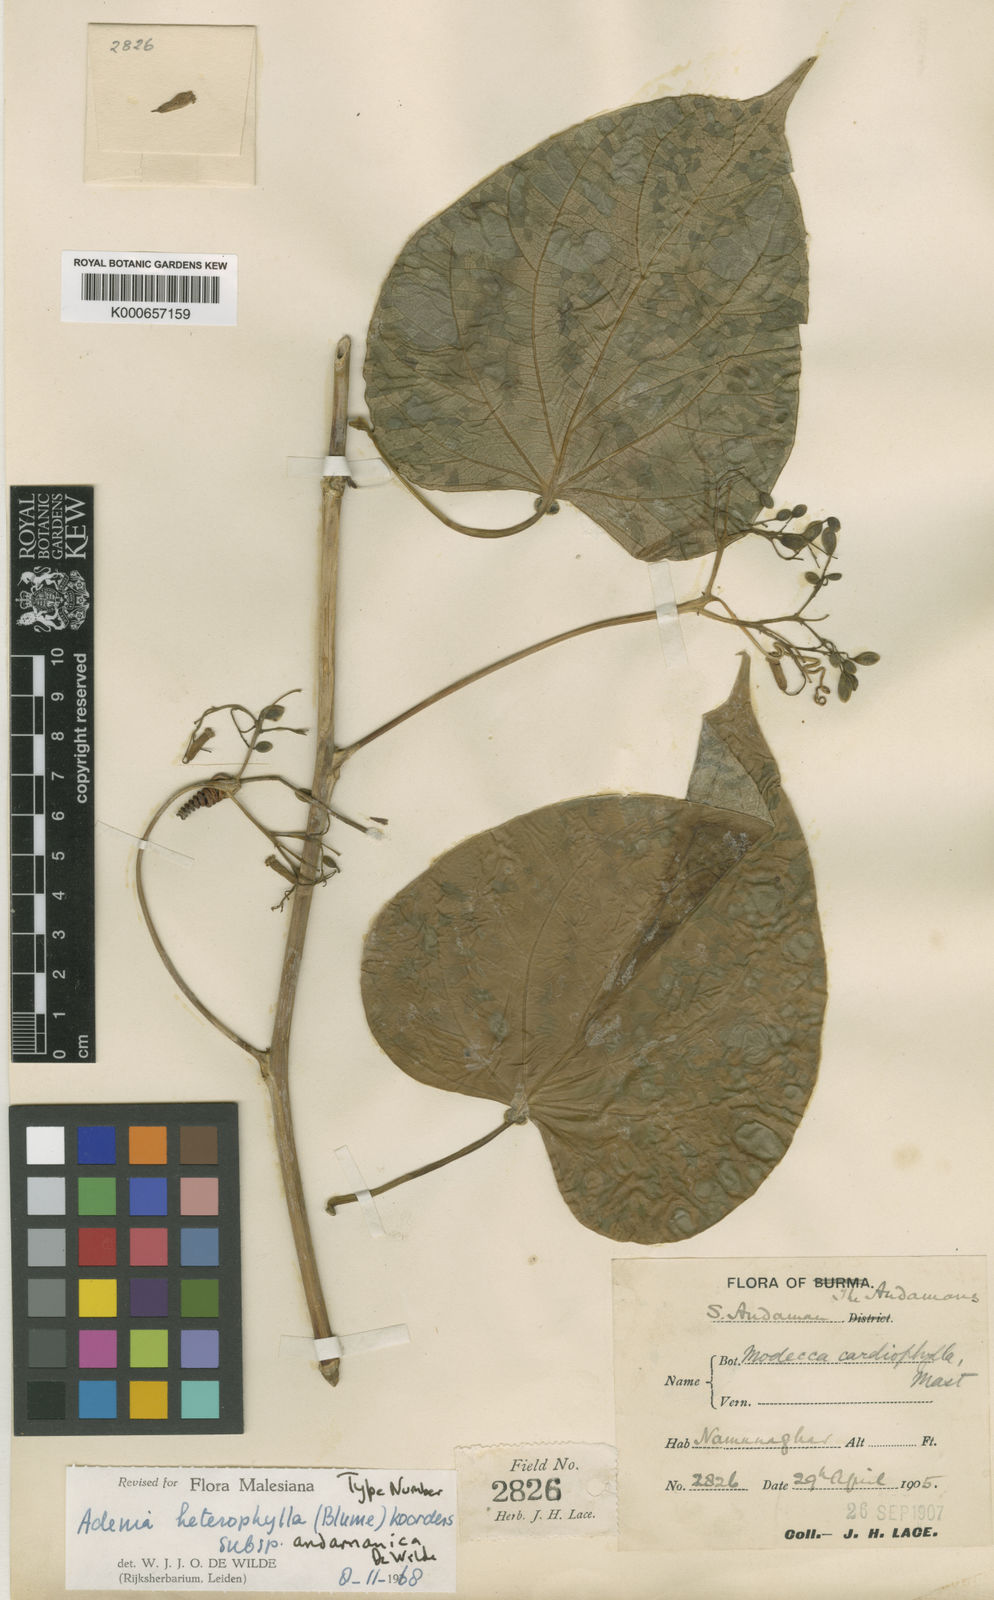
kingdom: Plantae
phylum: Tracheophyta
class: Magnoliopsida
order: Malpighiales
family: Passifloraceae
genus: Adenia
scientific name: Adenia heterophylla
